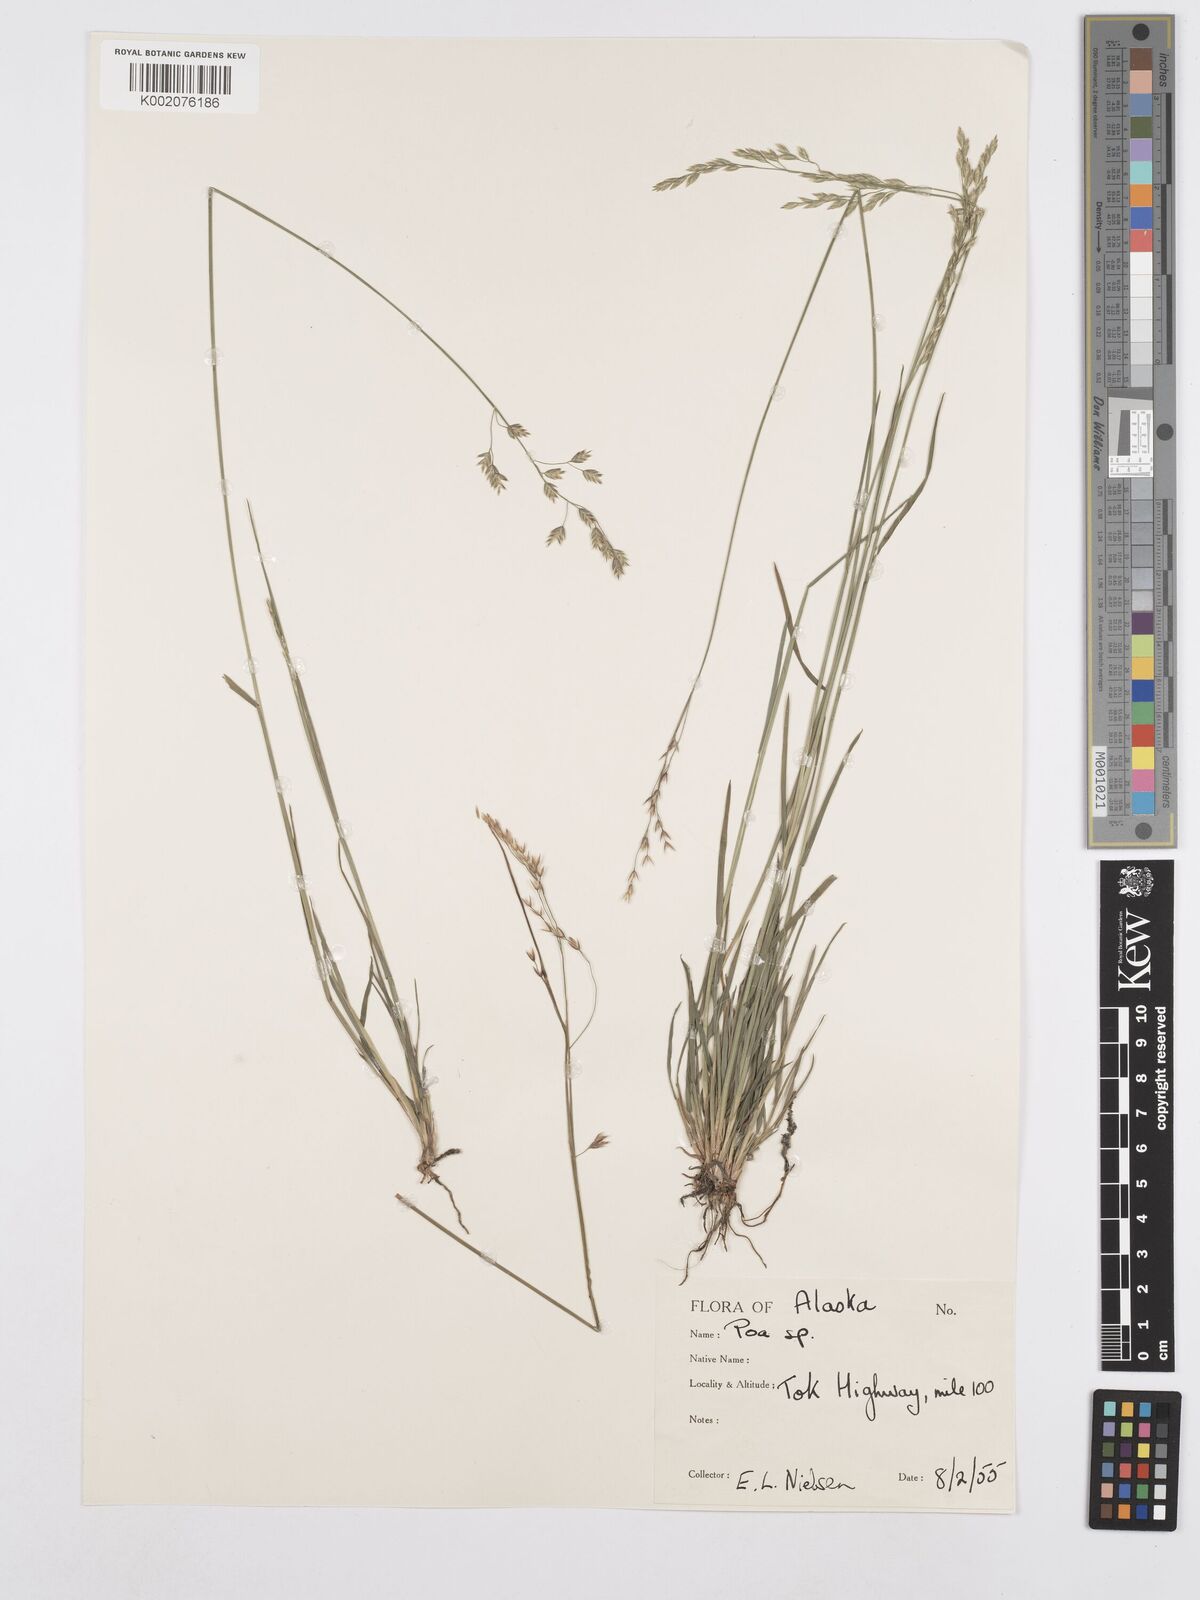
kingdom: Plantae
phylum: Tracheophyta
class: Liliopsida
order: Poales
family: Poaceae
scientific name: Poaceae
